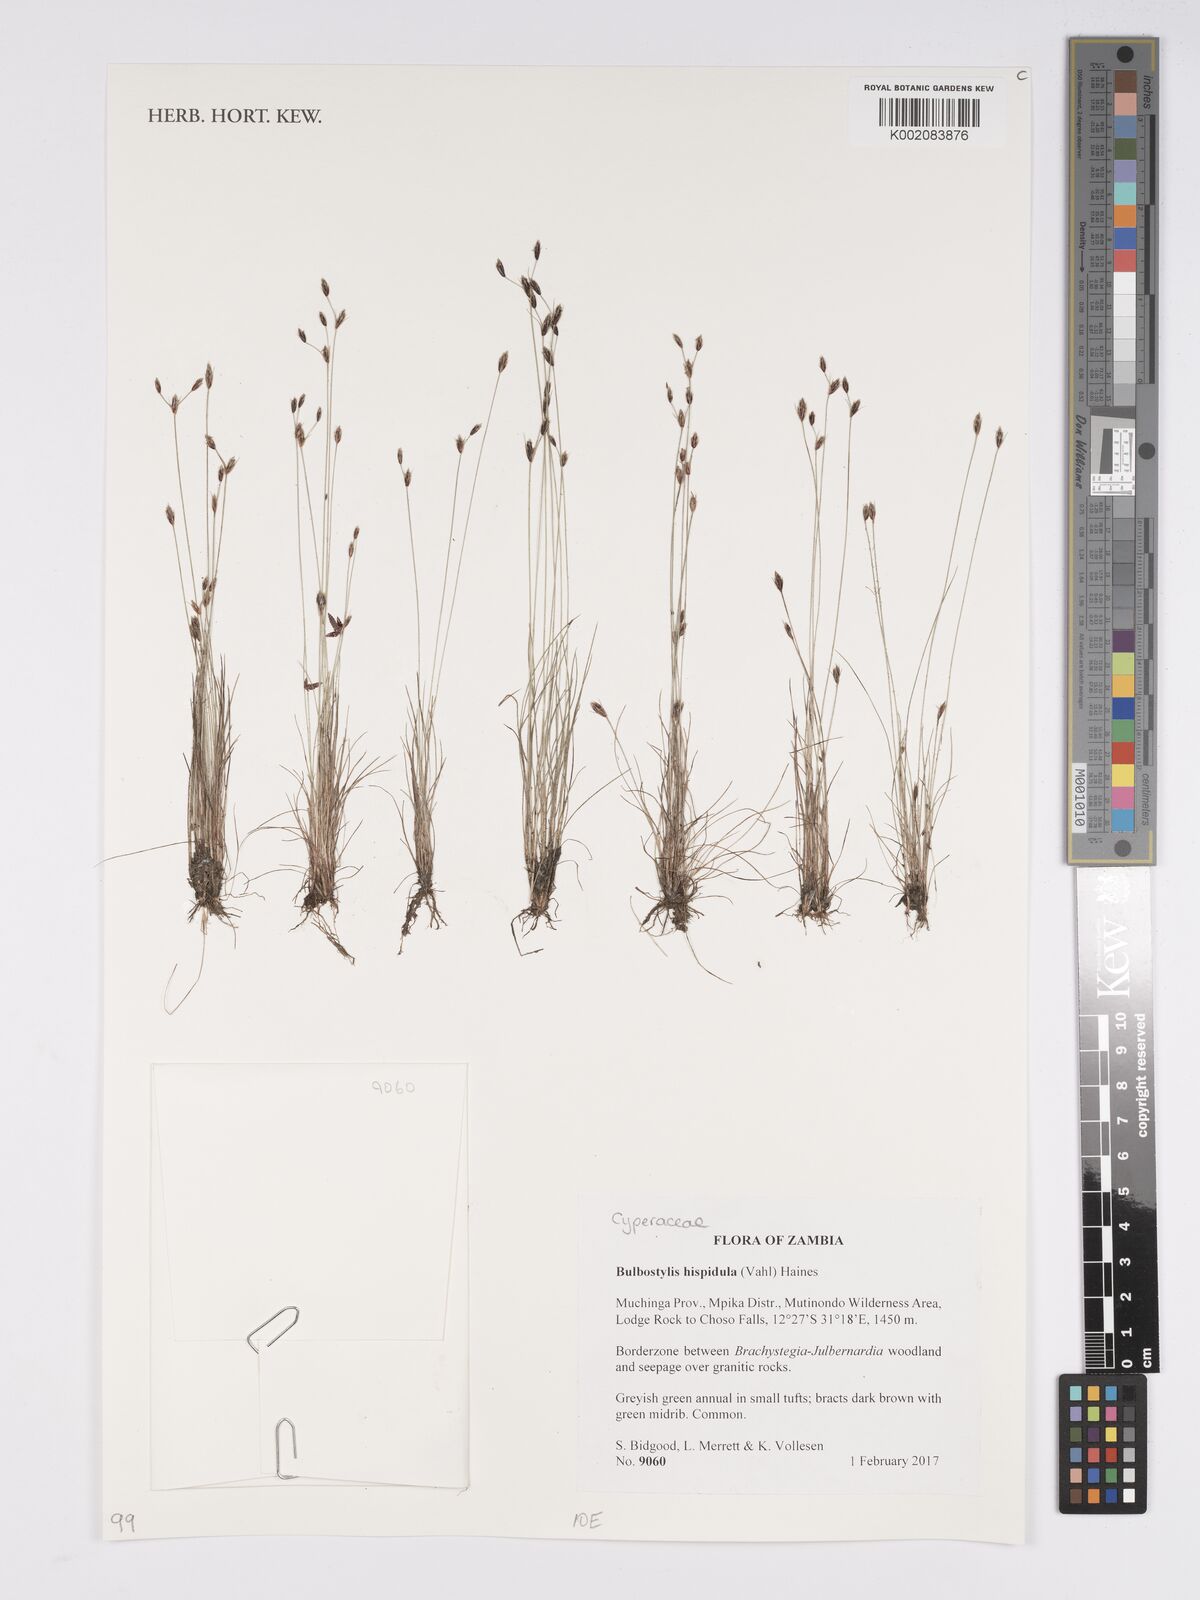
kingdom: Plantae
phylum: Tracheophyta
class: Liliopsida
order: Poales
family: Cyperaceae
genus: Bulbostylis
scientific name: Bulbostylis hispidula
